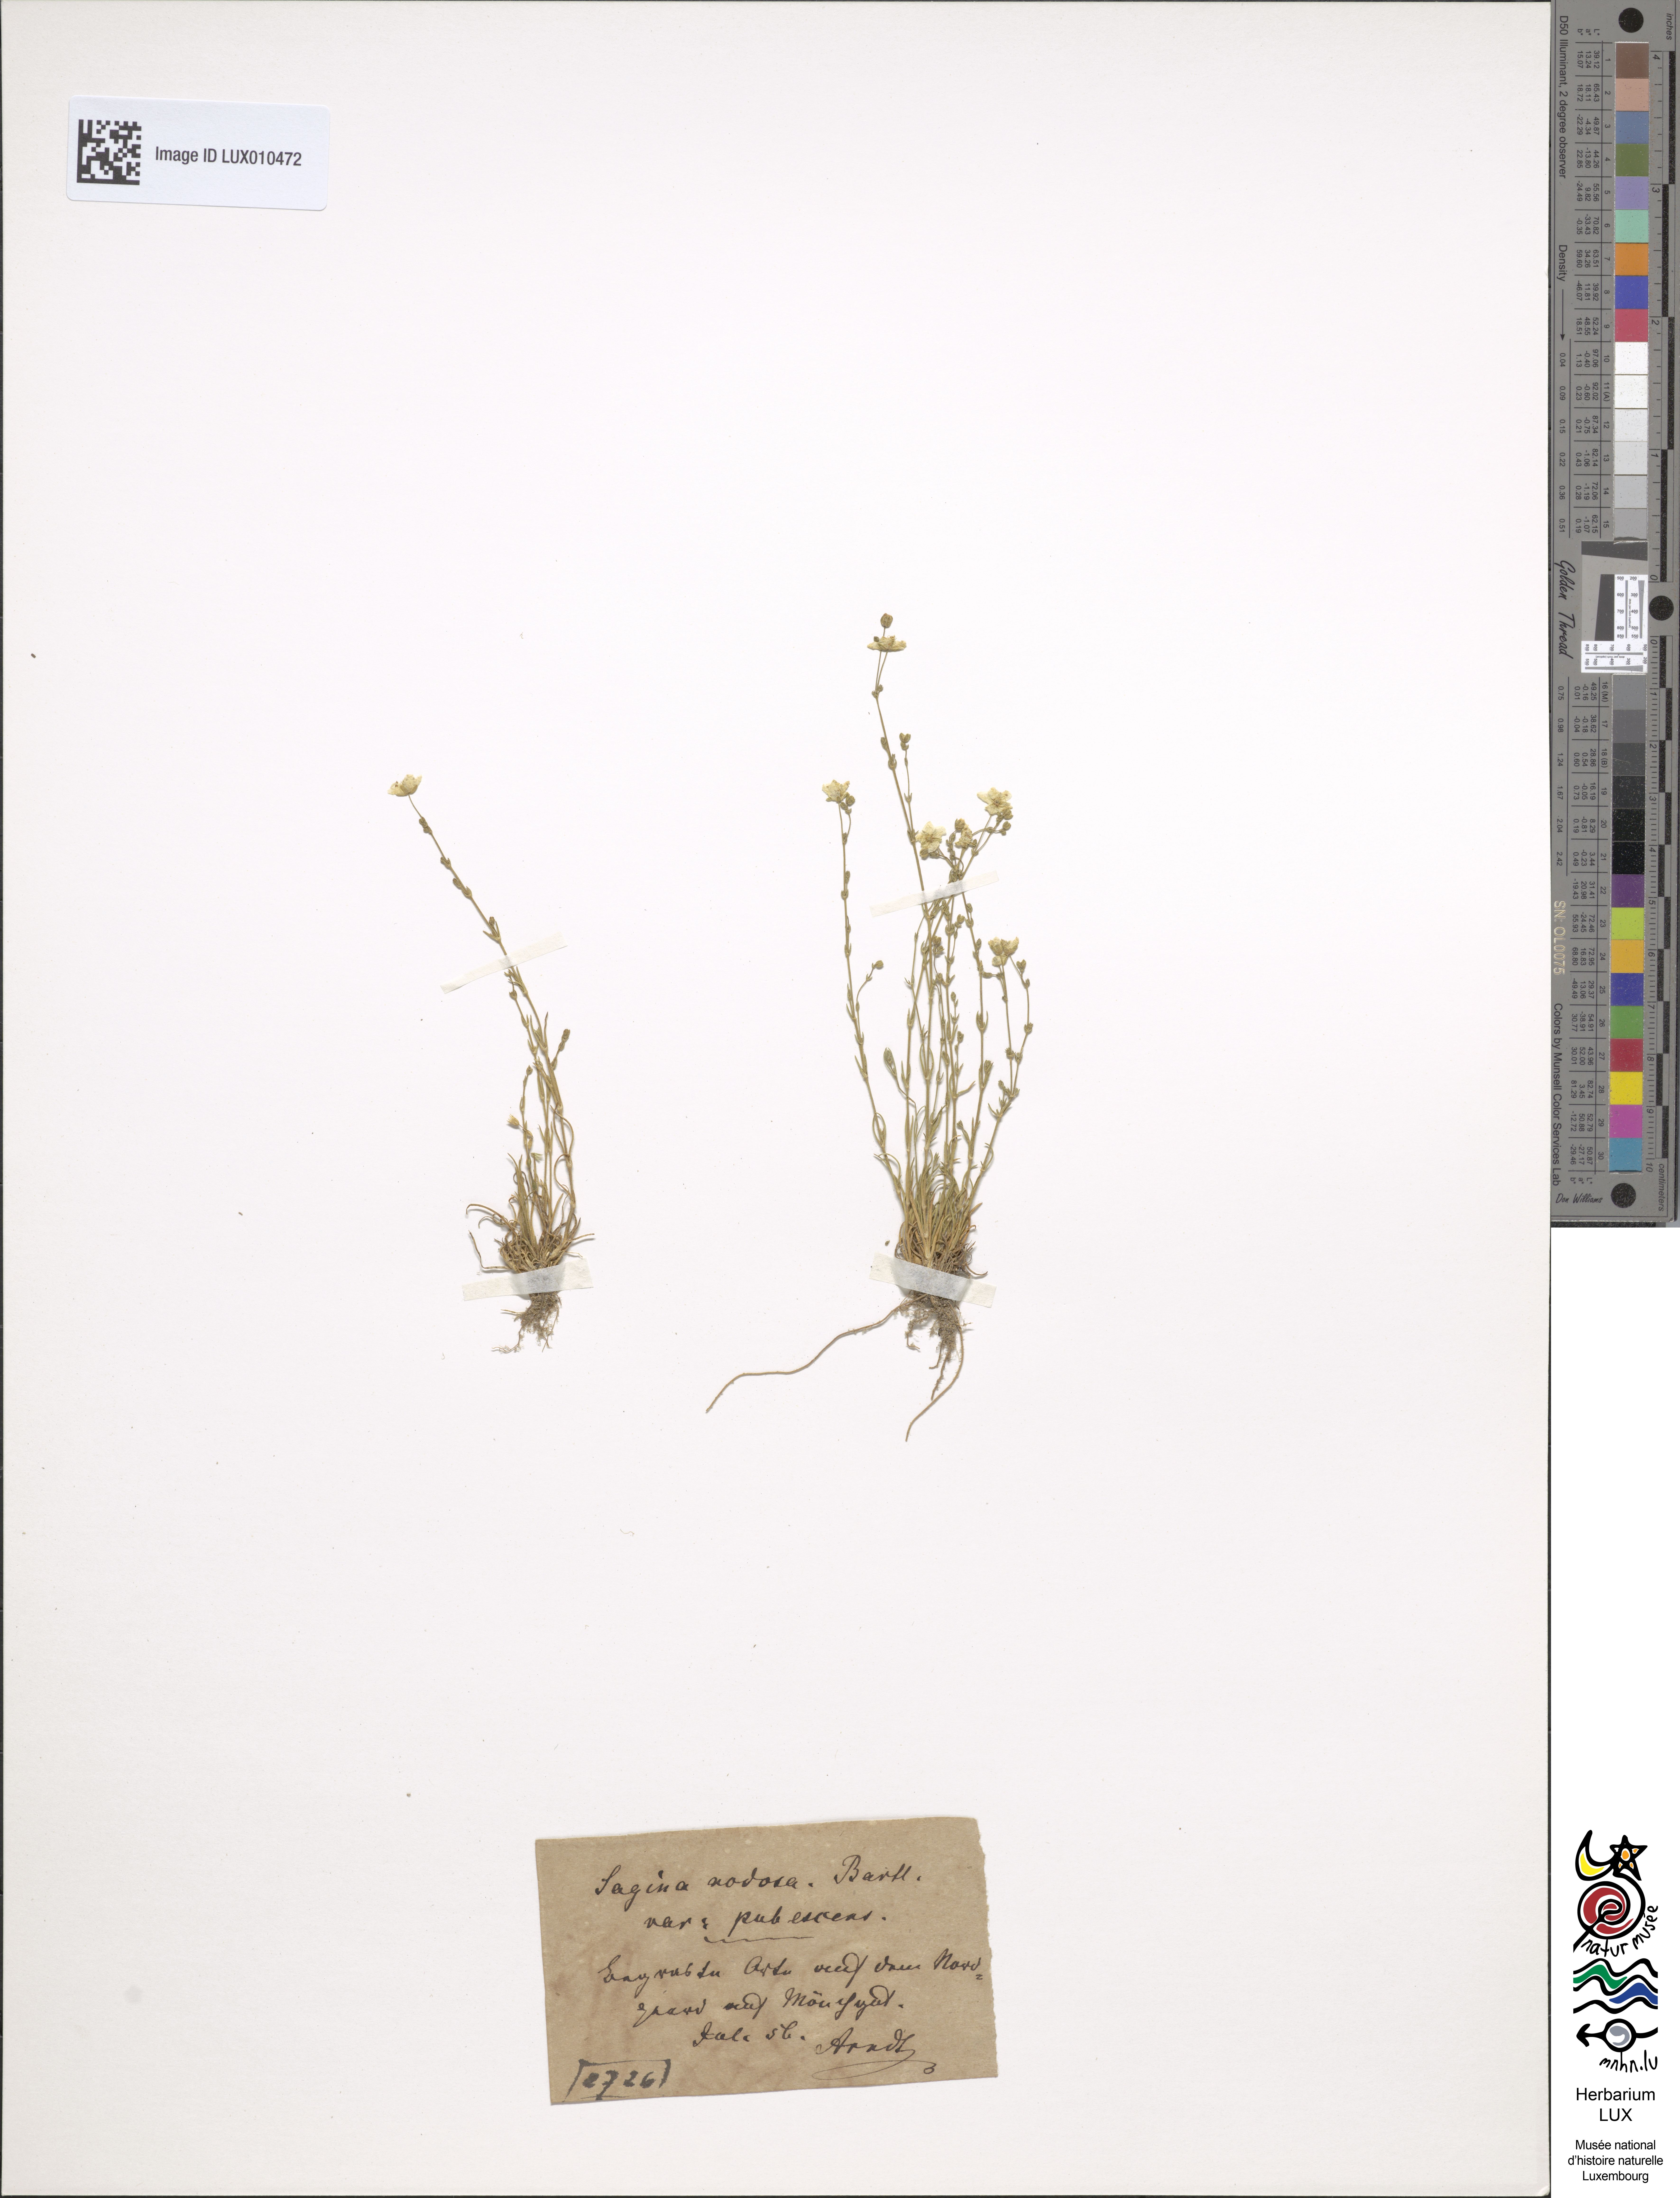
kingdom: Plantae
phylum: Tracheophyta
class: Magnoliopsida
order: Caryophyllales
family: Caryophyllaceae
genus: Sagina
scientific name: Sagina nodosa
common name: Knotted pearlwort
